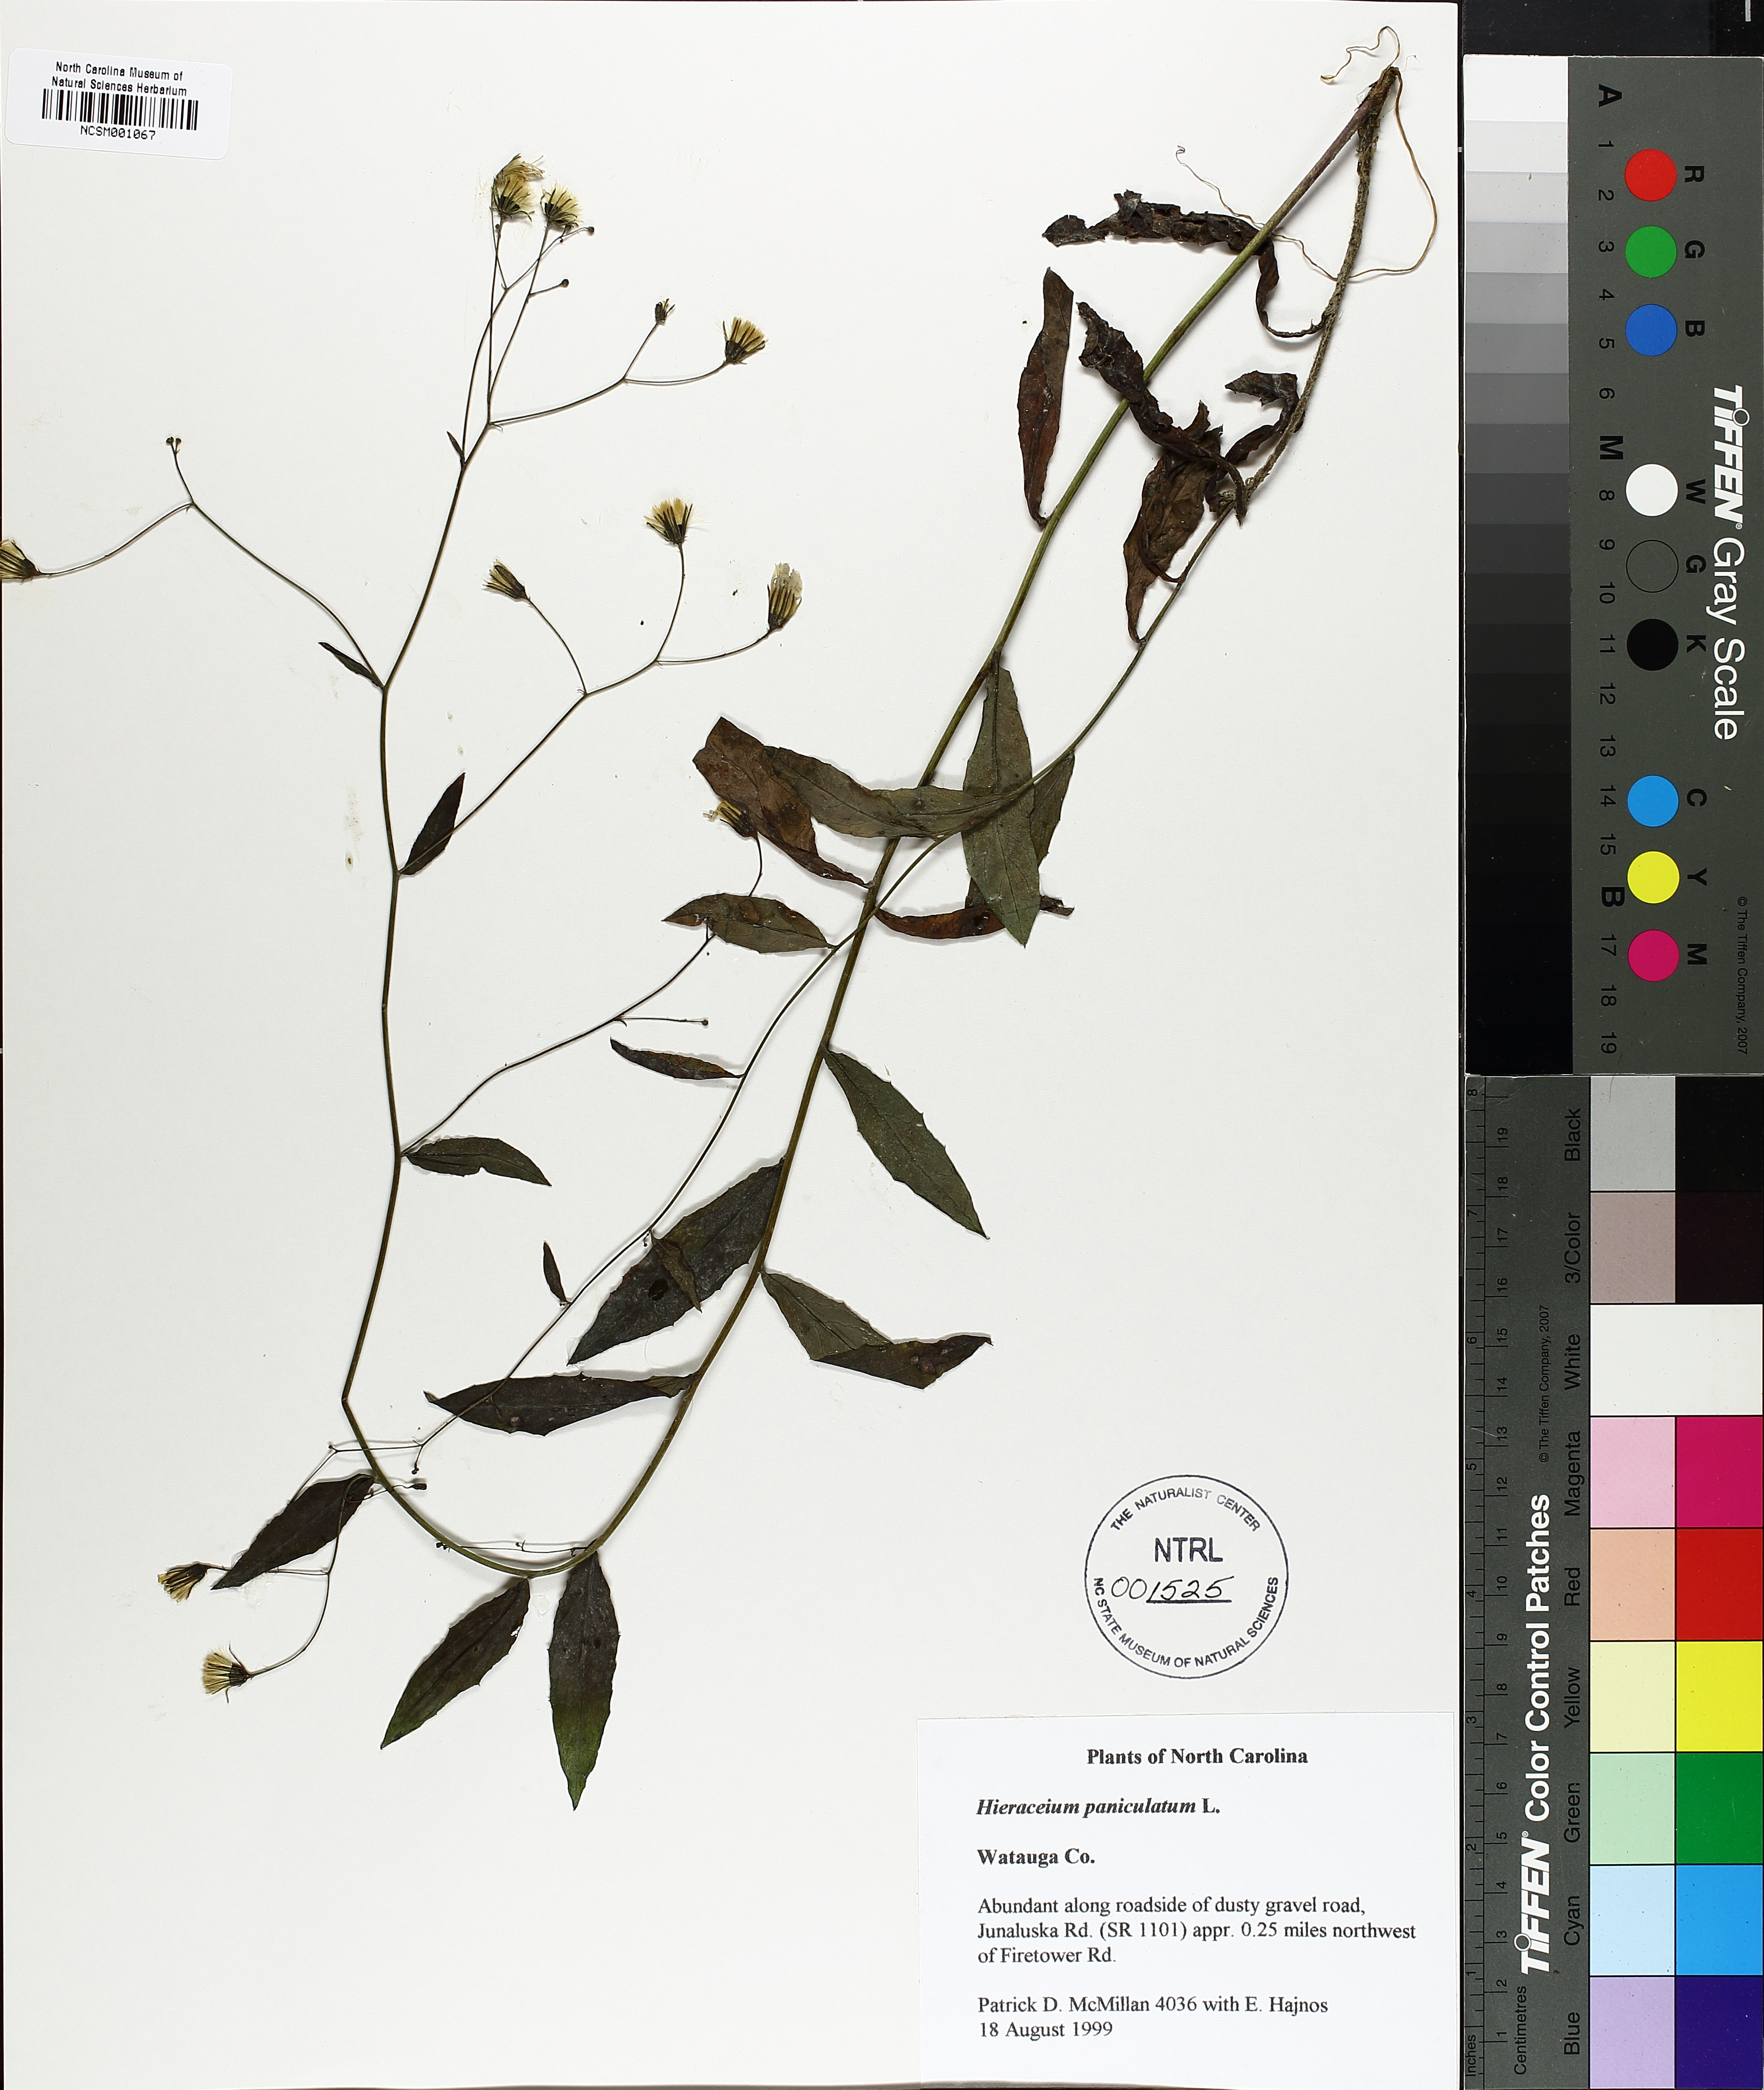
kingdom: Plantae
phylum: Tracheophyta
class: Magnoliopsida
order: Asterales
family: Asteraceae
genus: Hieracium
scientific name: Hieracium paniculatum
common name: Allegheny hawkweed
